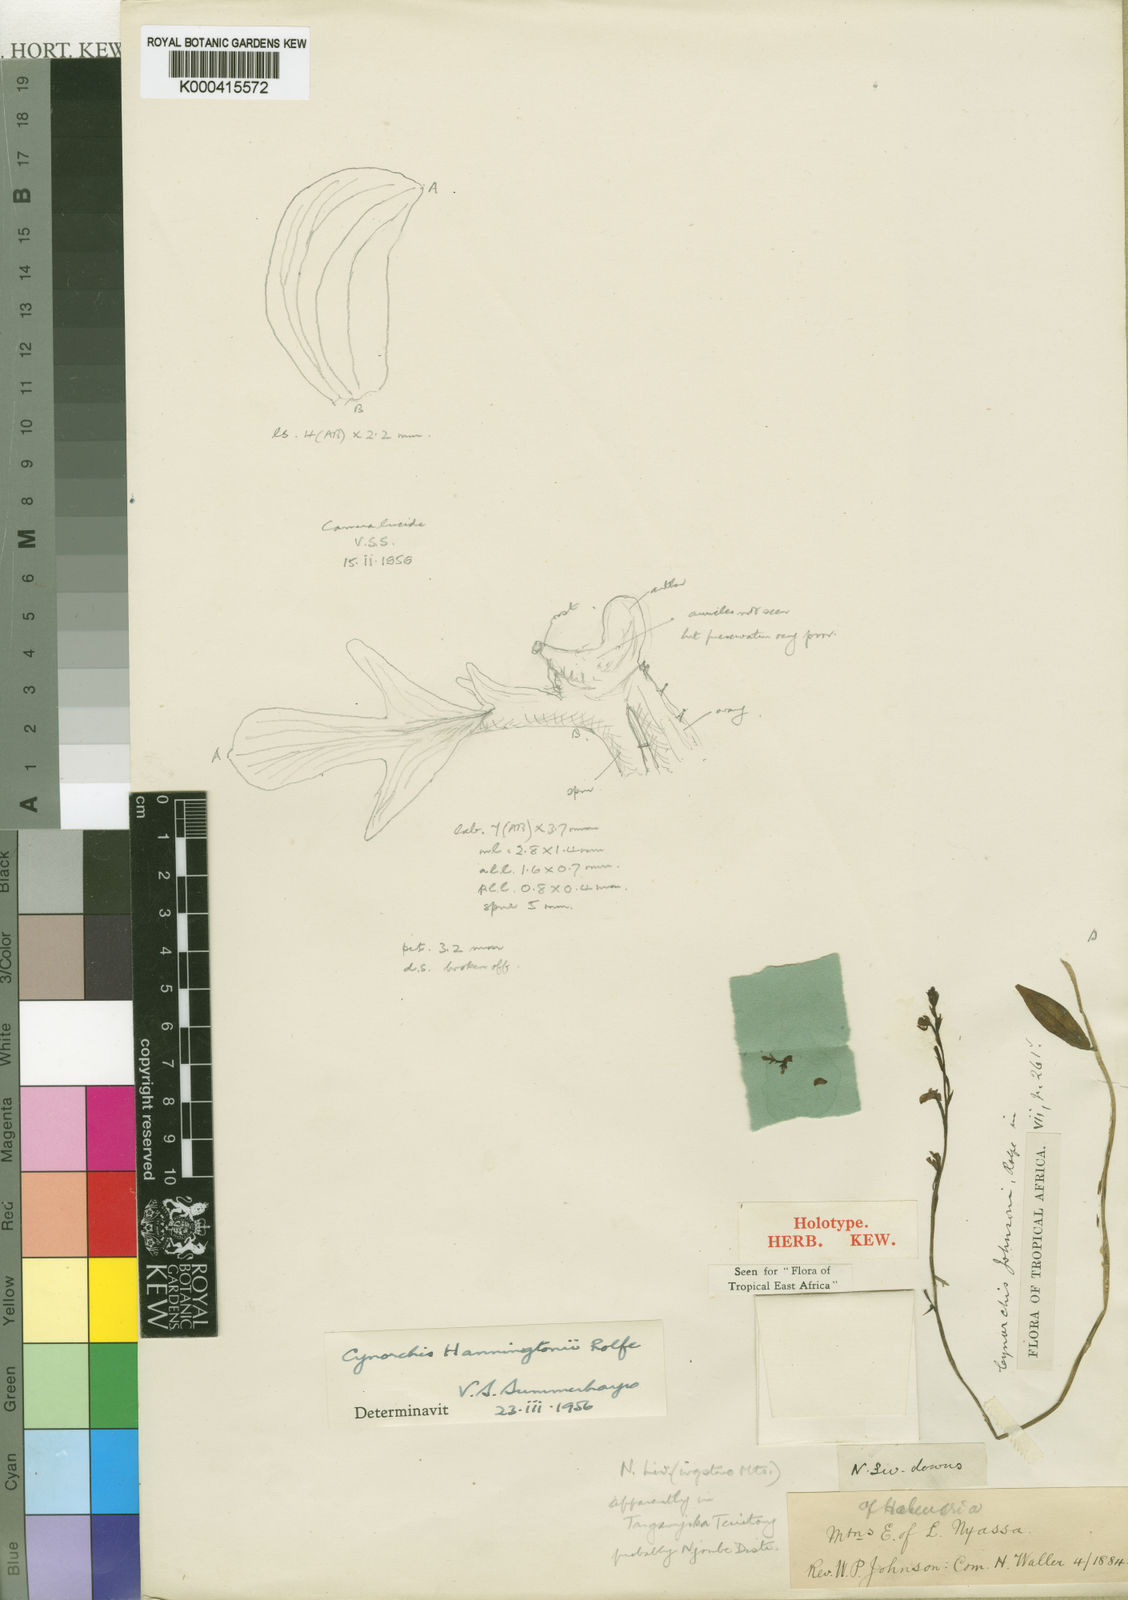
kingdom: Plantae
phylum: Tracheophyta
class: Liliopsida
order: Asparagales
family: Orchidaceae
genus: Cynorkis
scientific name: Cynorkis debilis
